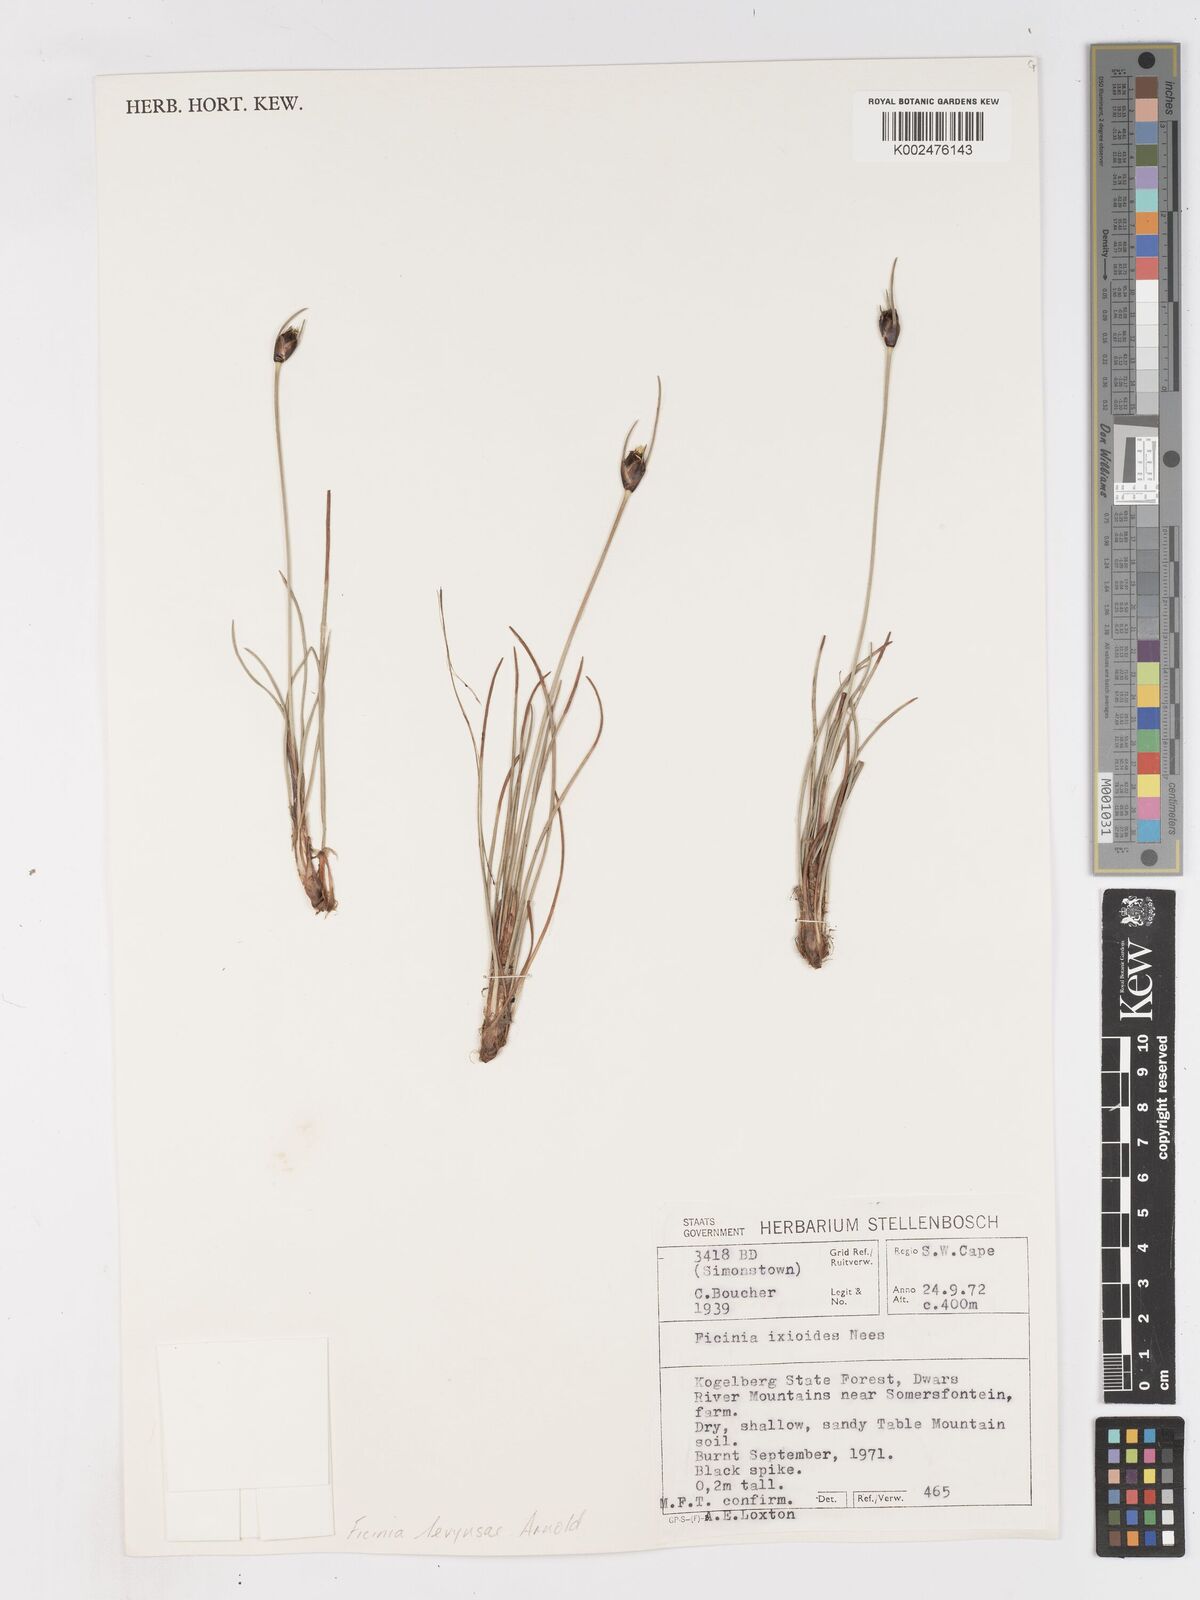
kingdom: Plantae
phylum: Tracheophyta
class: Liliopsida
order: Poales
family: Cyperaceae
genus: Ficinia
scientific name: Ficinia levynsiae
